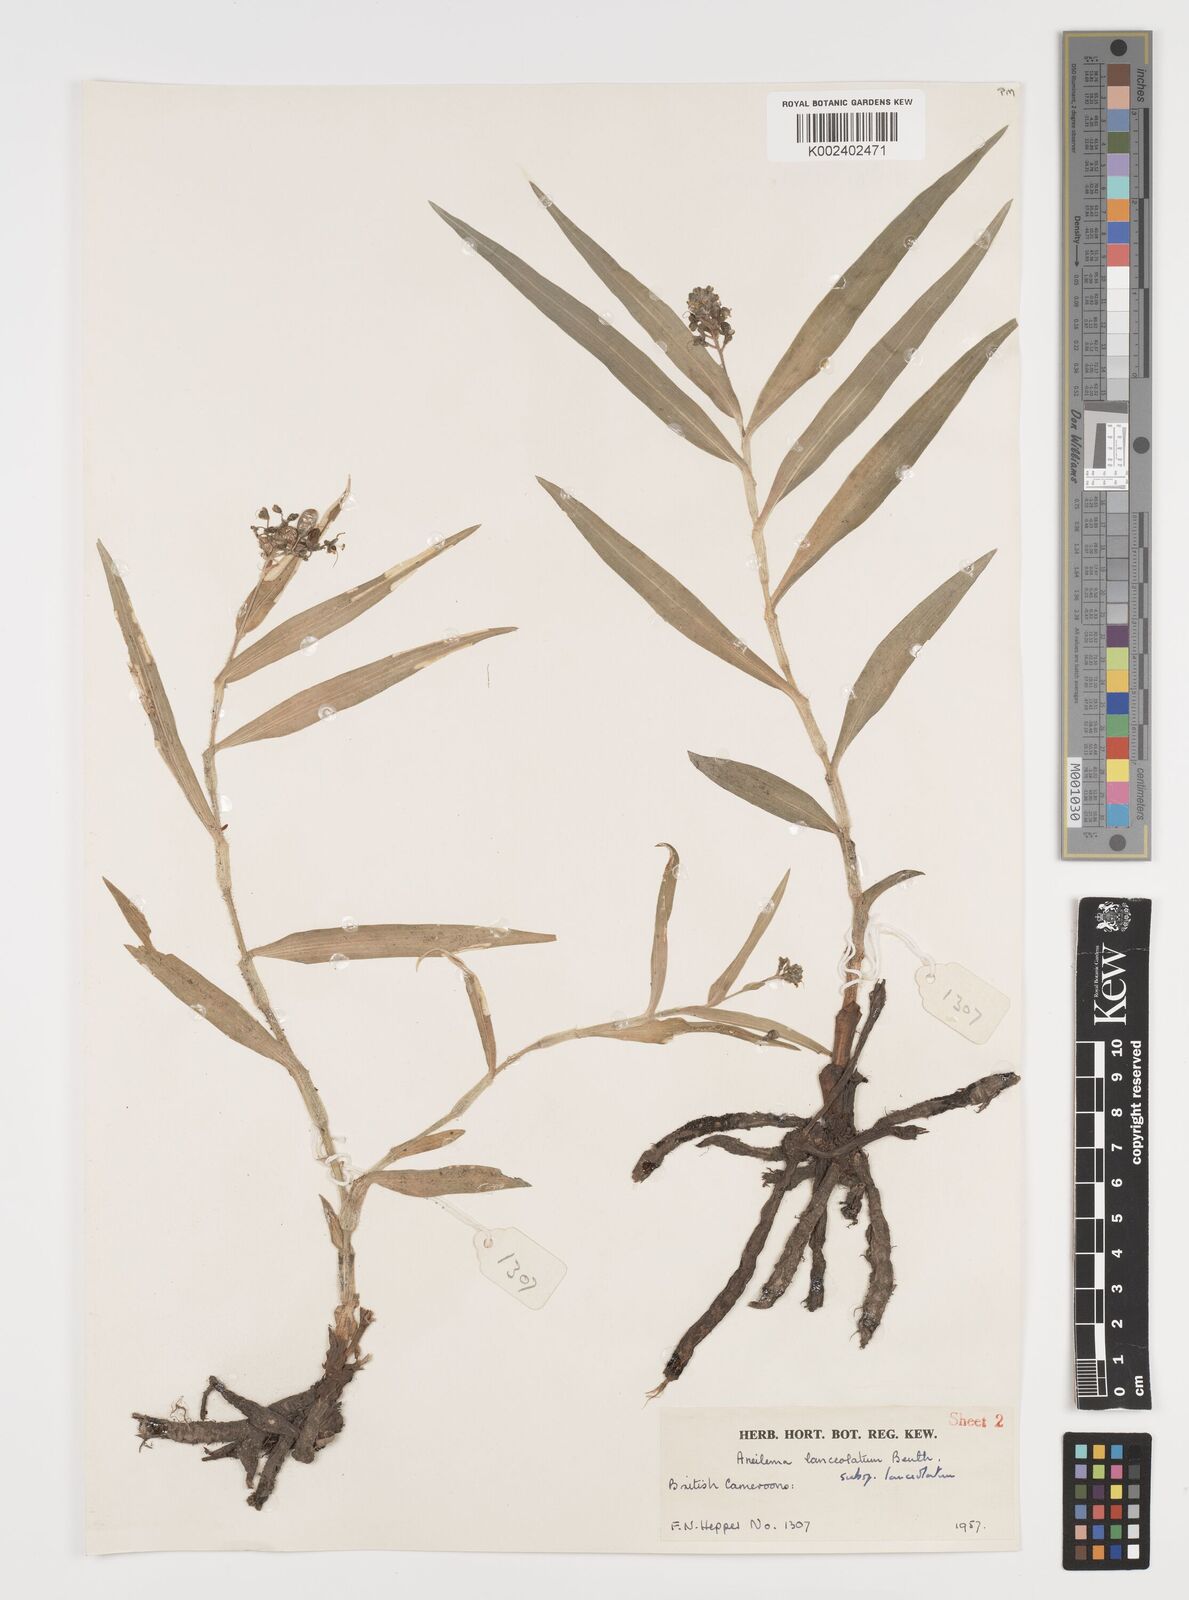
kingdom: Plantae
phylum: Tracheophyta
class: Liliopsida
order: Commelinales
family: Commelinaceae
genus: Murdannia
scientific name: Murdannia spirata
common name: Asiatic dewflower
